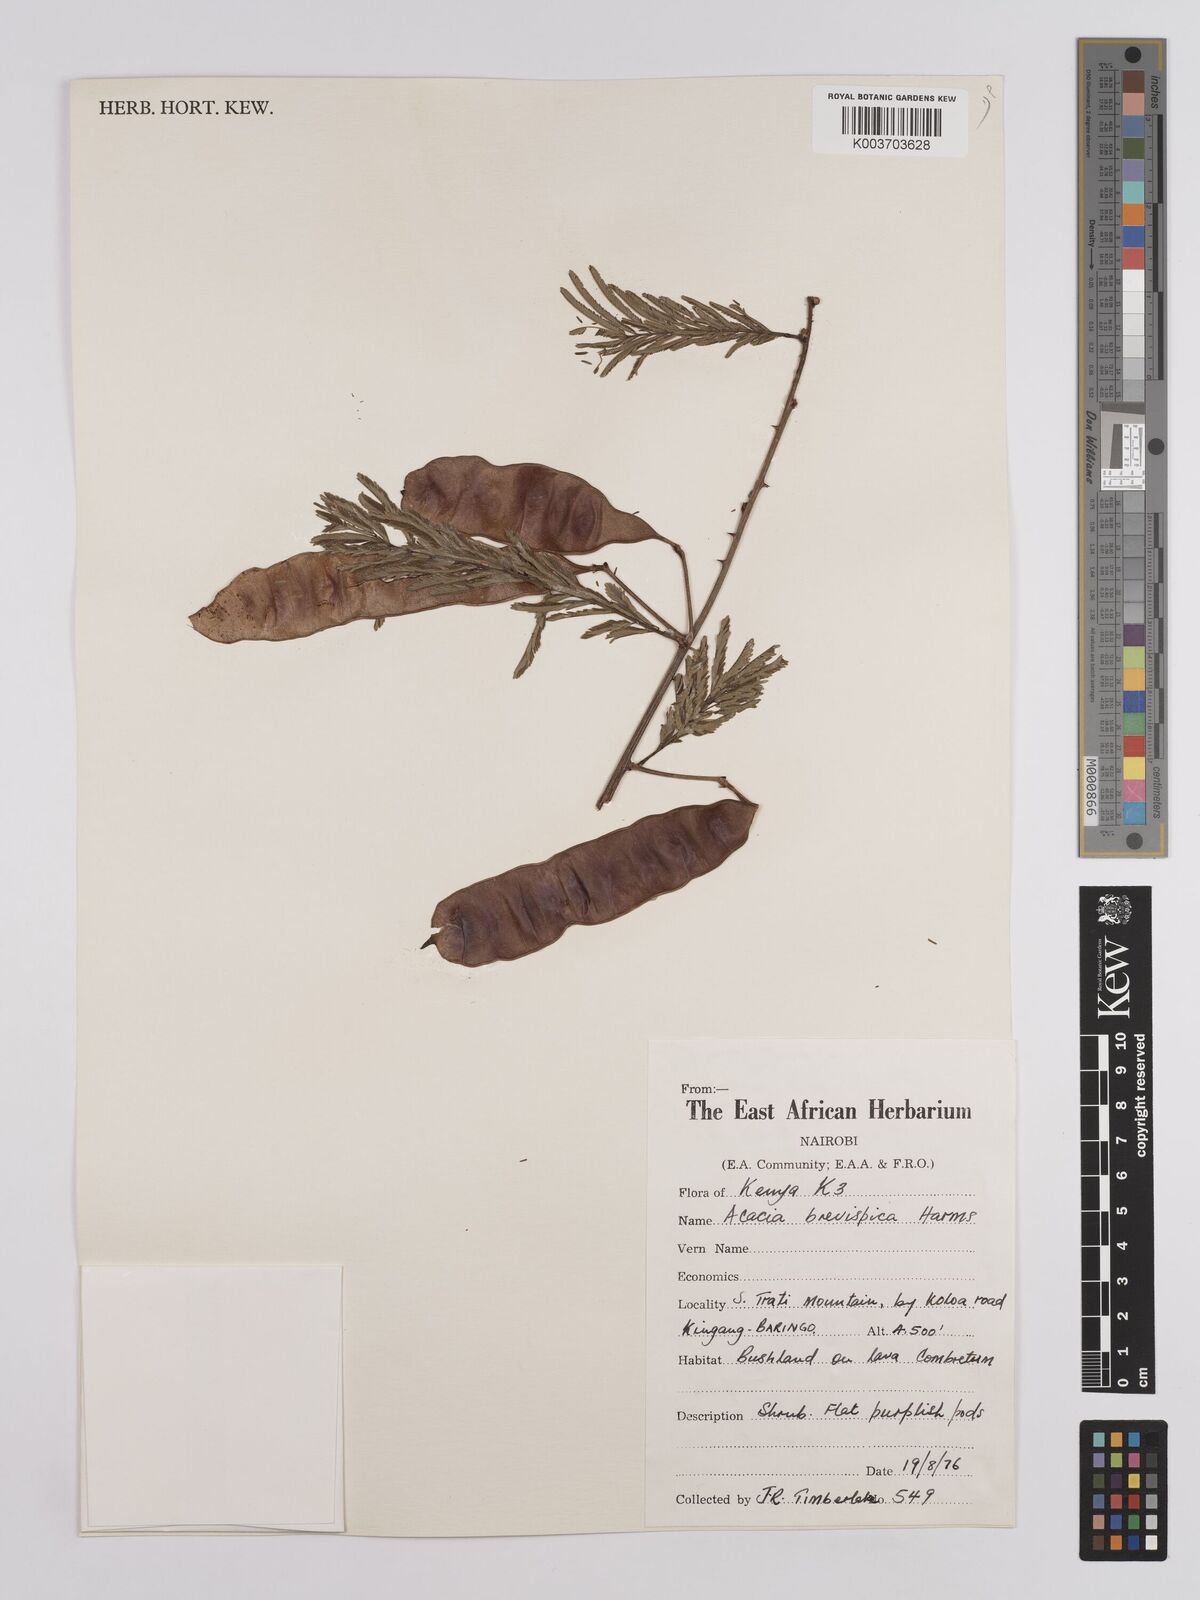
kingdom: Plantae
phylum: Tracheophyta
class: Magnoliopsida
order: Fabales
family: Fabaceae
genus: Senegalia
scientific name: Senegalia brevispica
